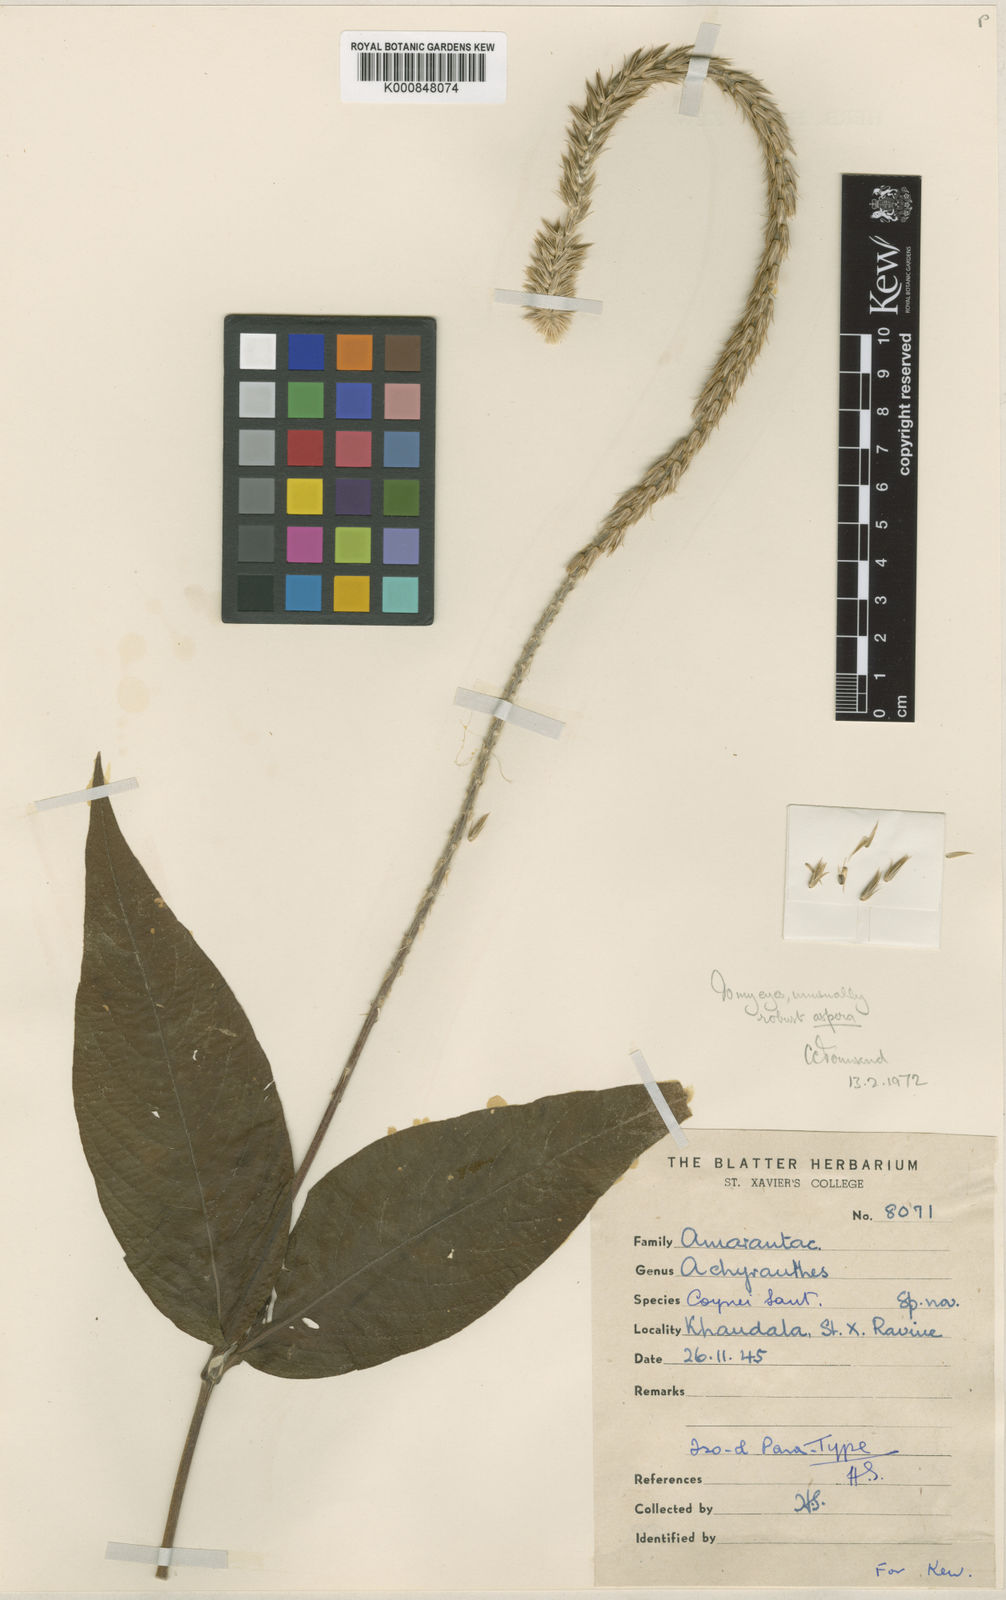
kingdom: Plantae
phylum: Tracheophyta
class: Magnoliopsida
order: Caryophyllales
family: Amaranthaceae
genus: Achyranthes
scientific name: Achyranthes coynei
